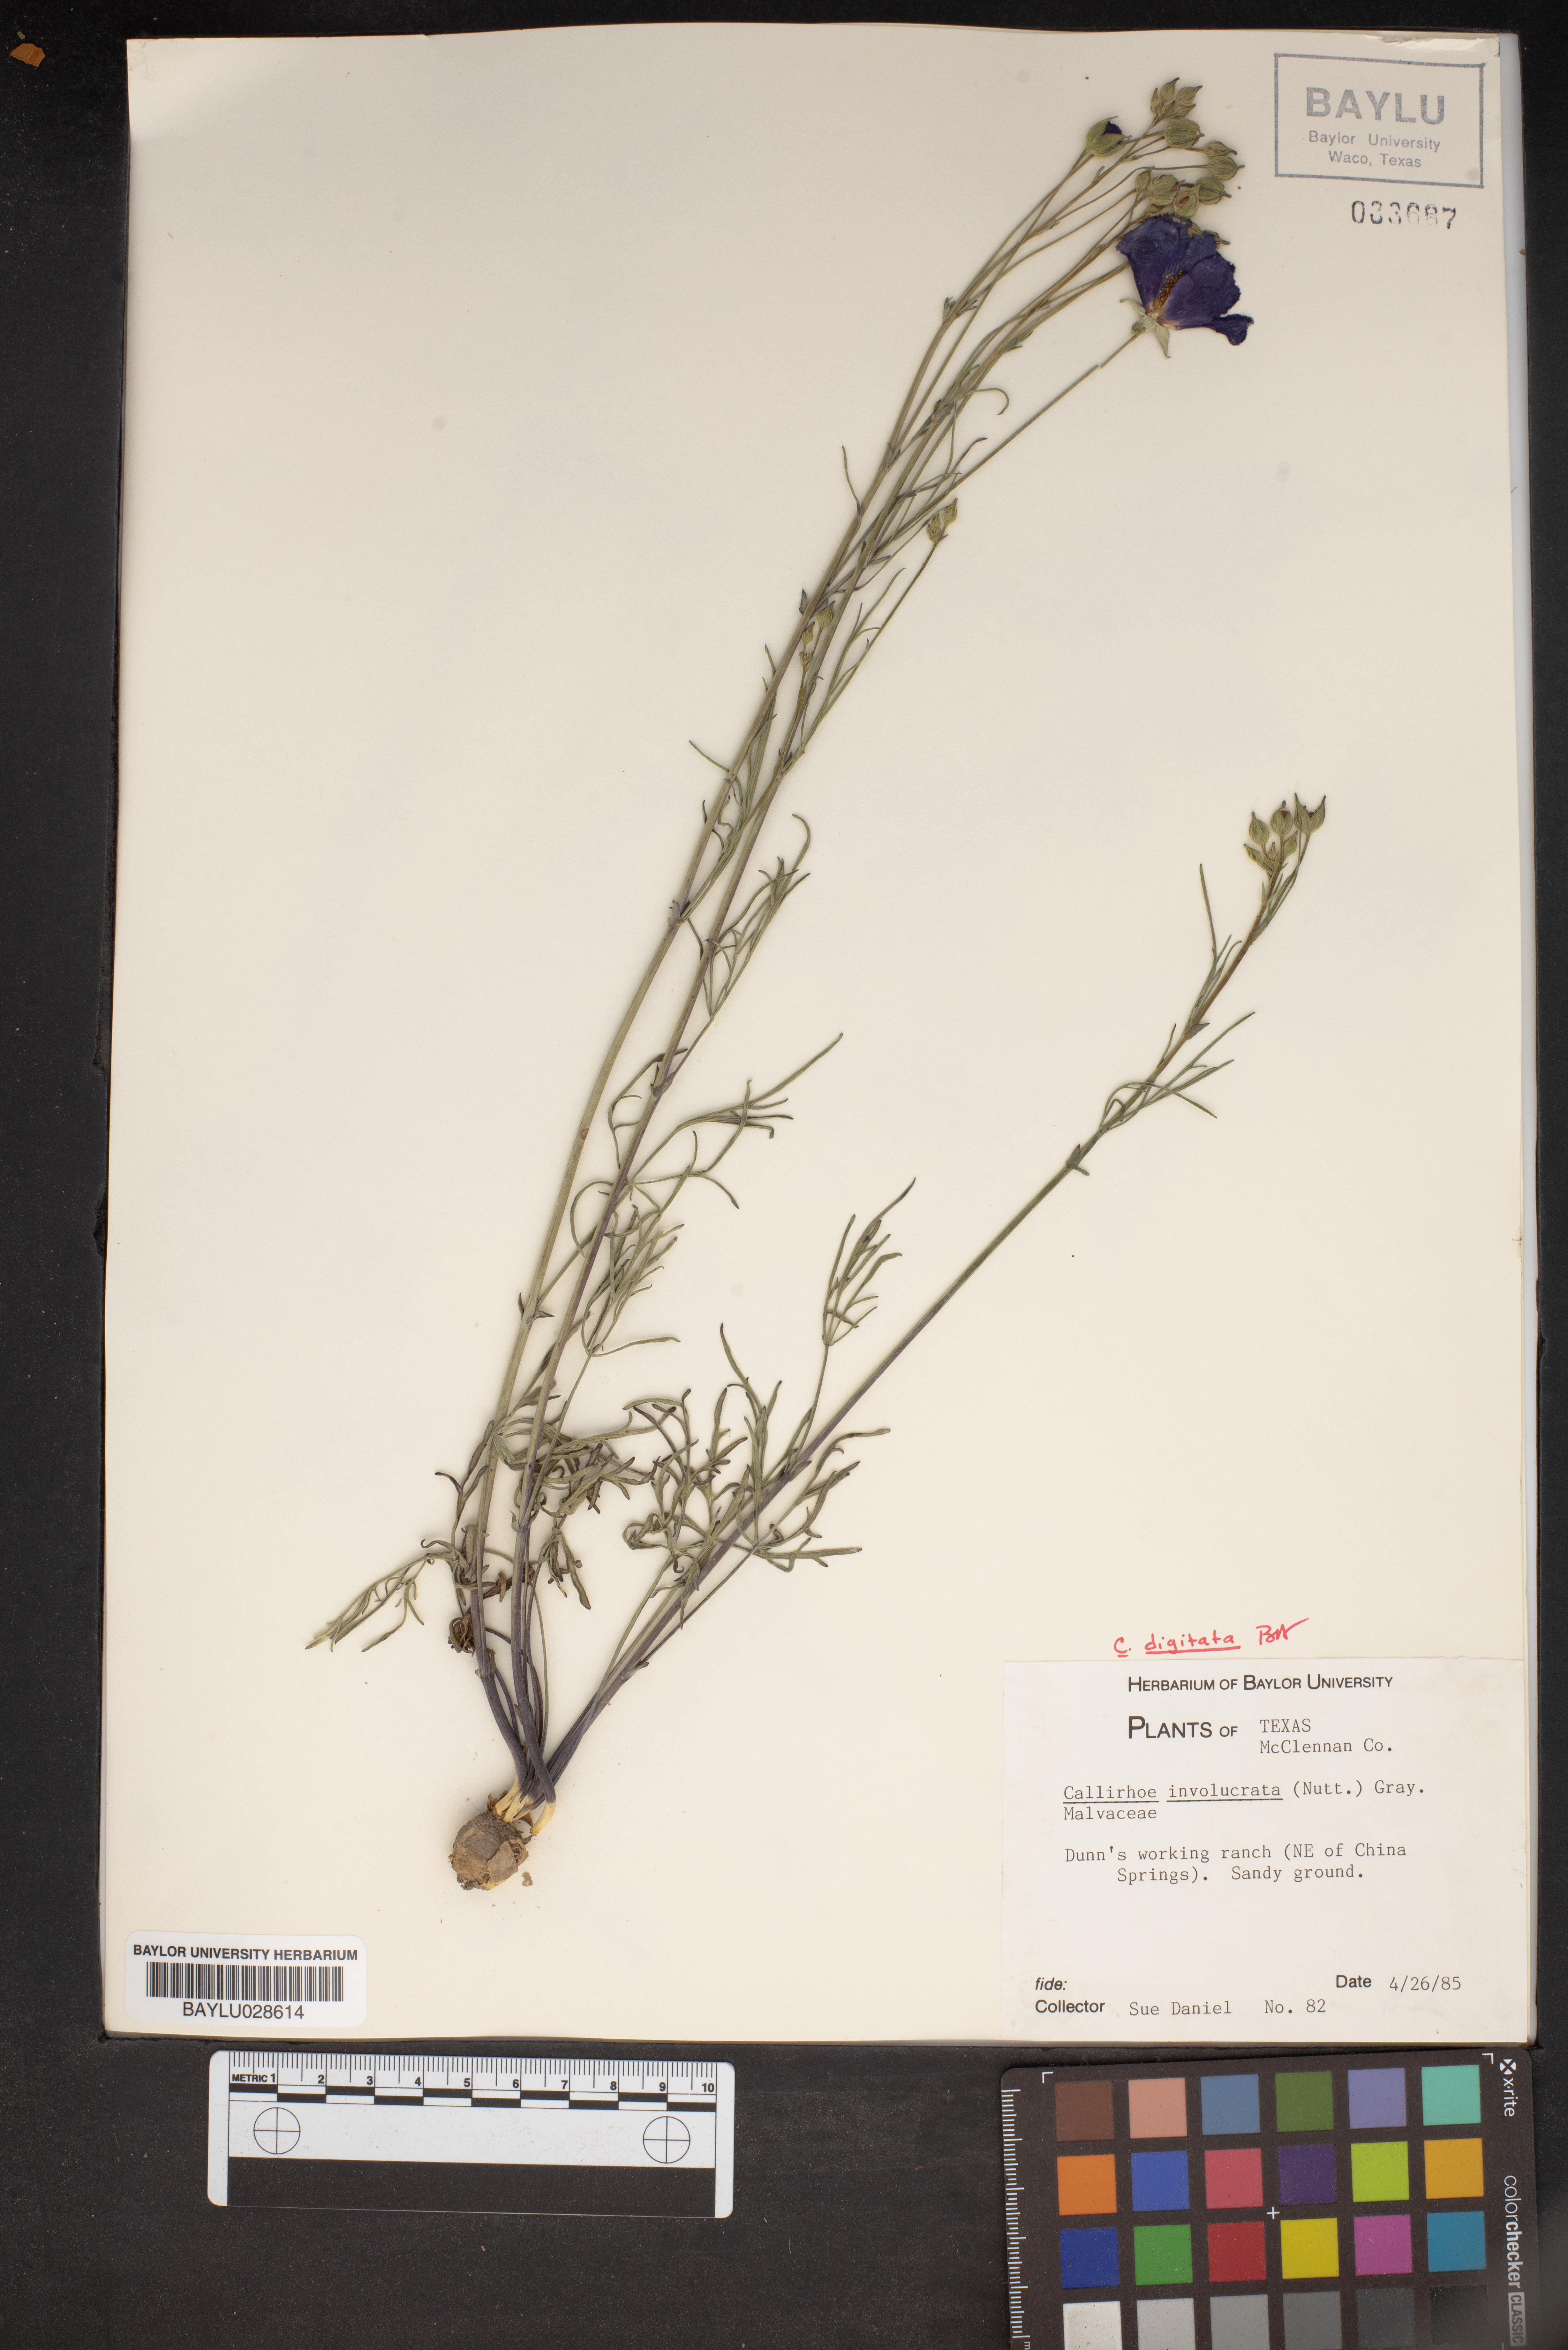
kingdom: Plantae
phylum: Tracheophyta
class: Magnoliopsida
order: Malvales
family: Malvaceae
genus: Callirhoe
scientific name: Callirhoe involucrata
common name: Purple poppy-mallow
